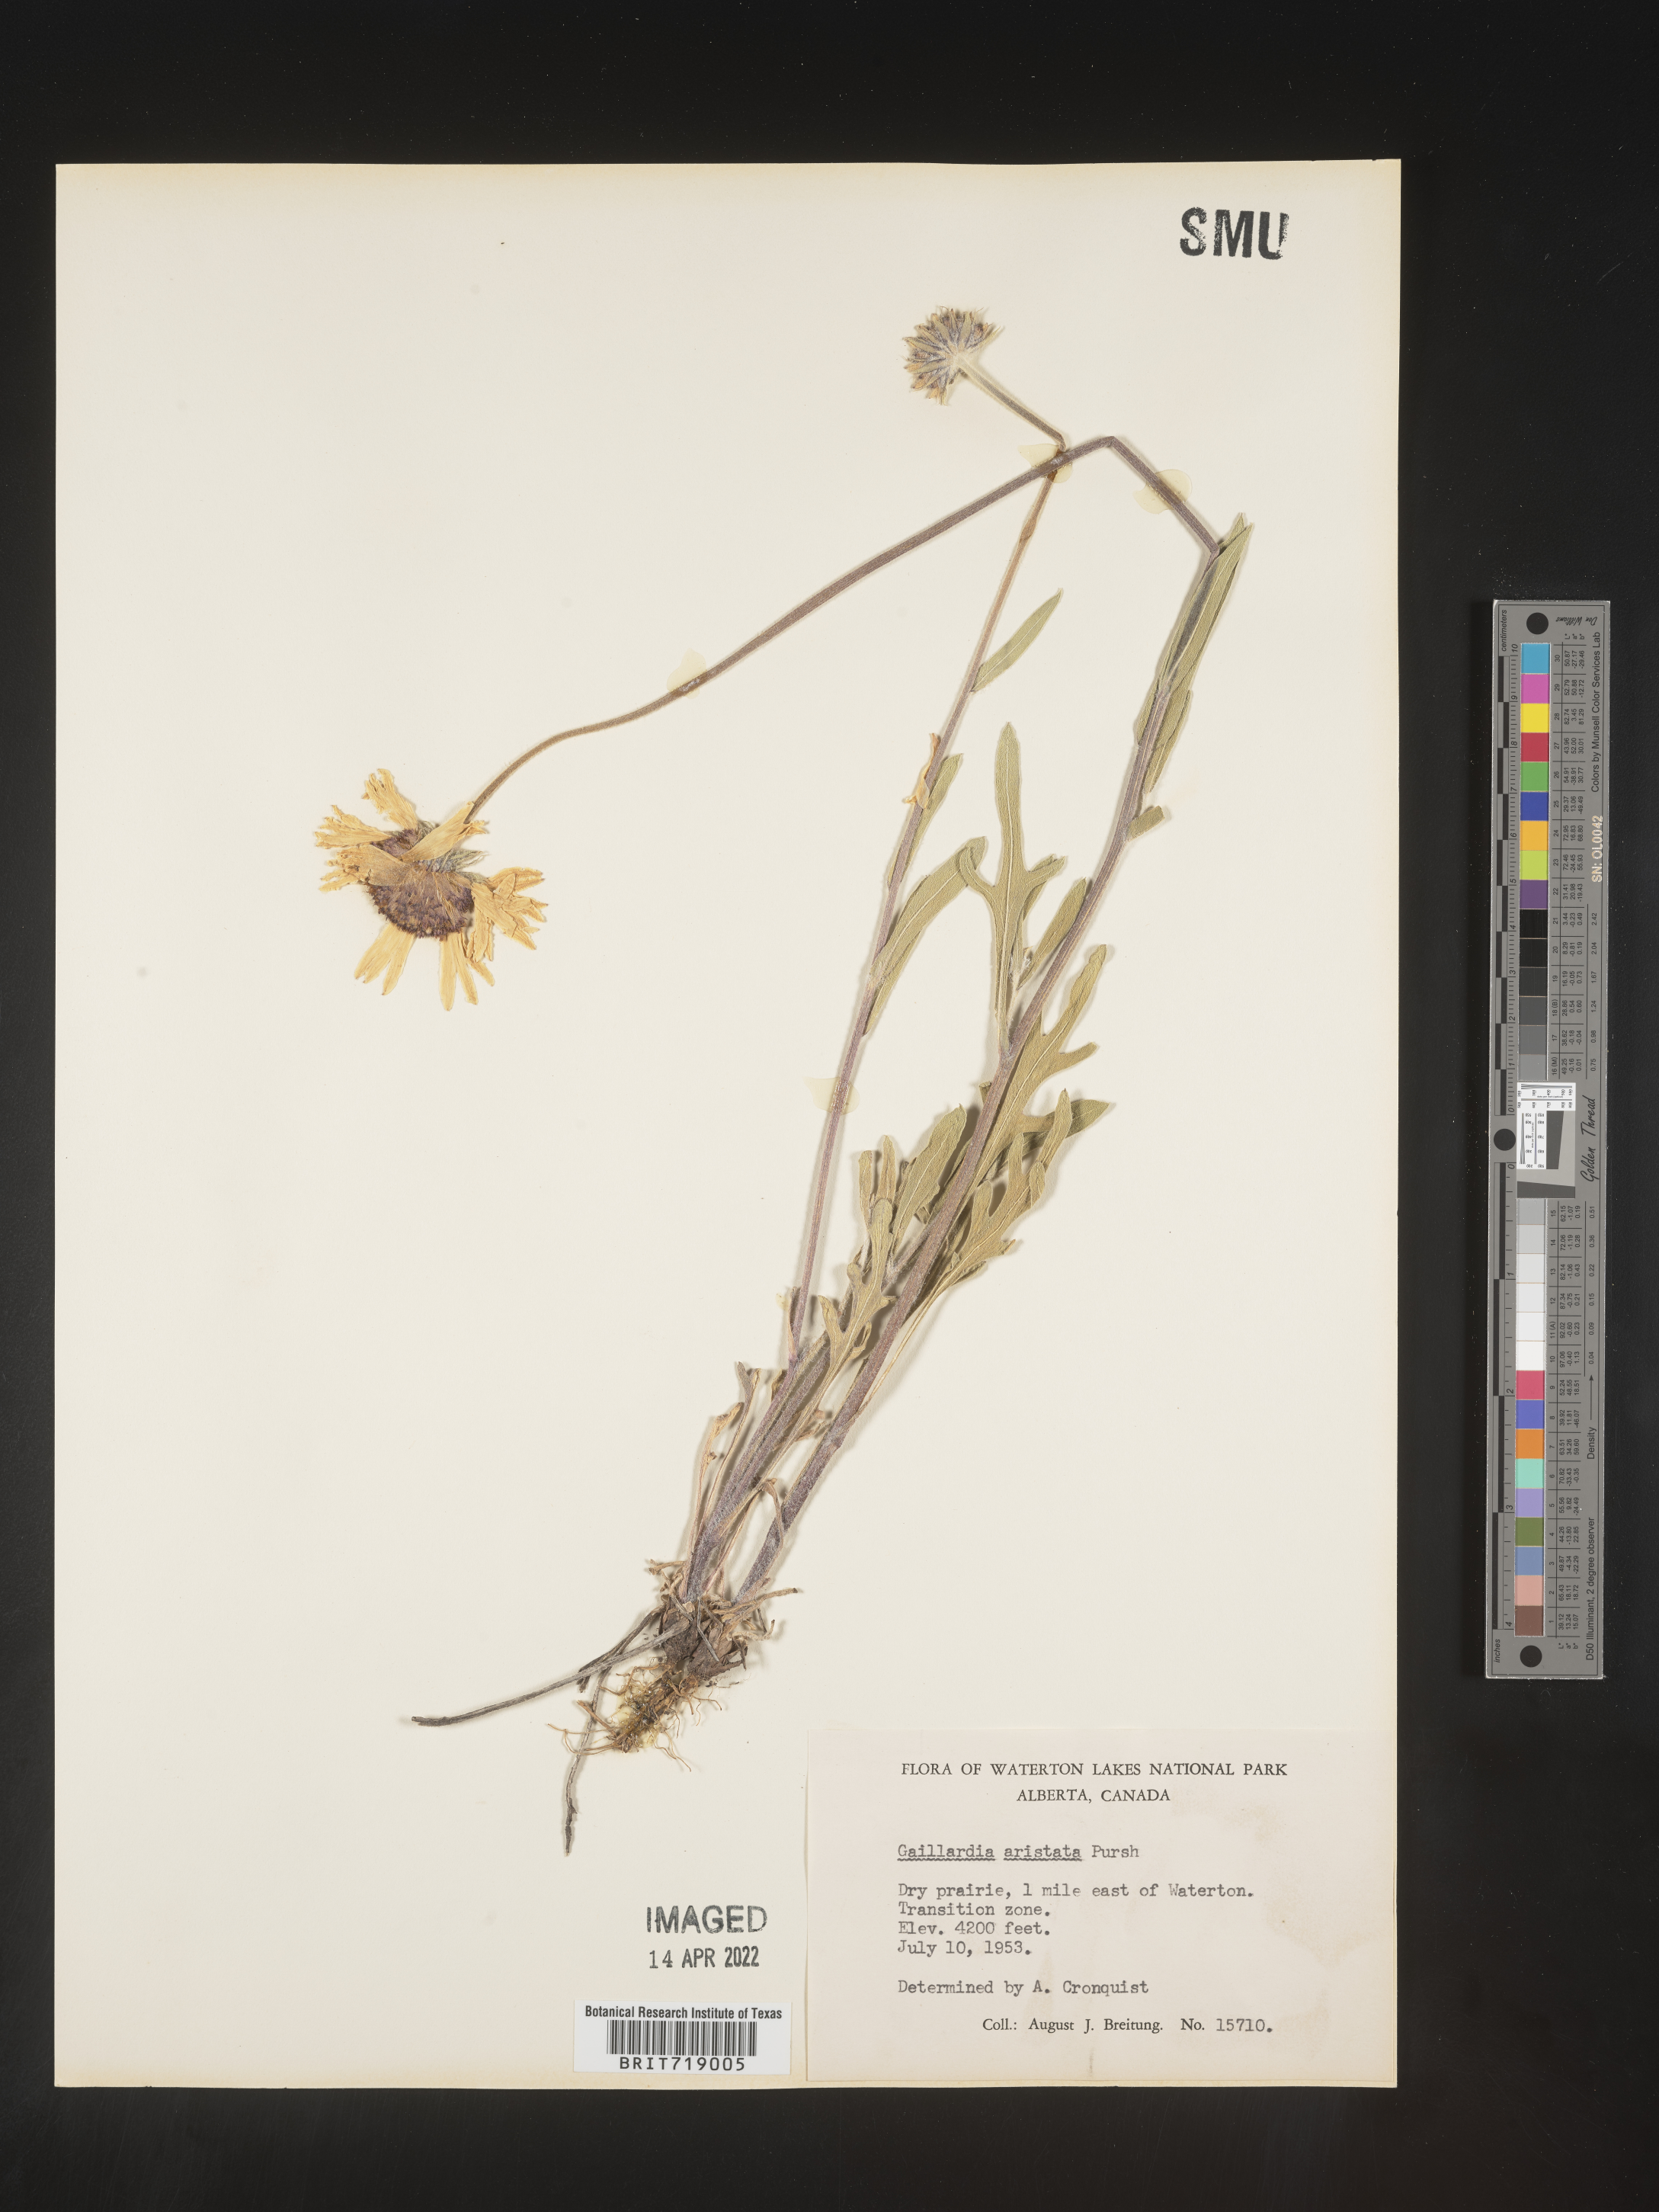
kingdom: Plantae
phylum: Tracheophyta
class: Magnoliopsida
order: Asterales
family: Asteraceae
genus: Gaillardia
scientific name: Gaillardia aristata
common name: Blanket-flower
